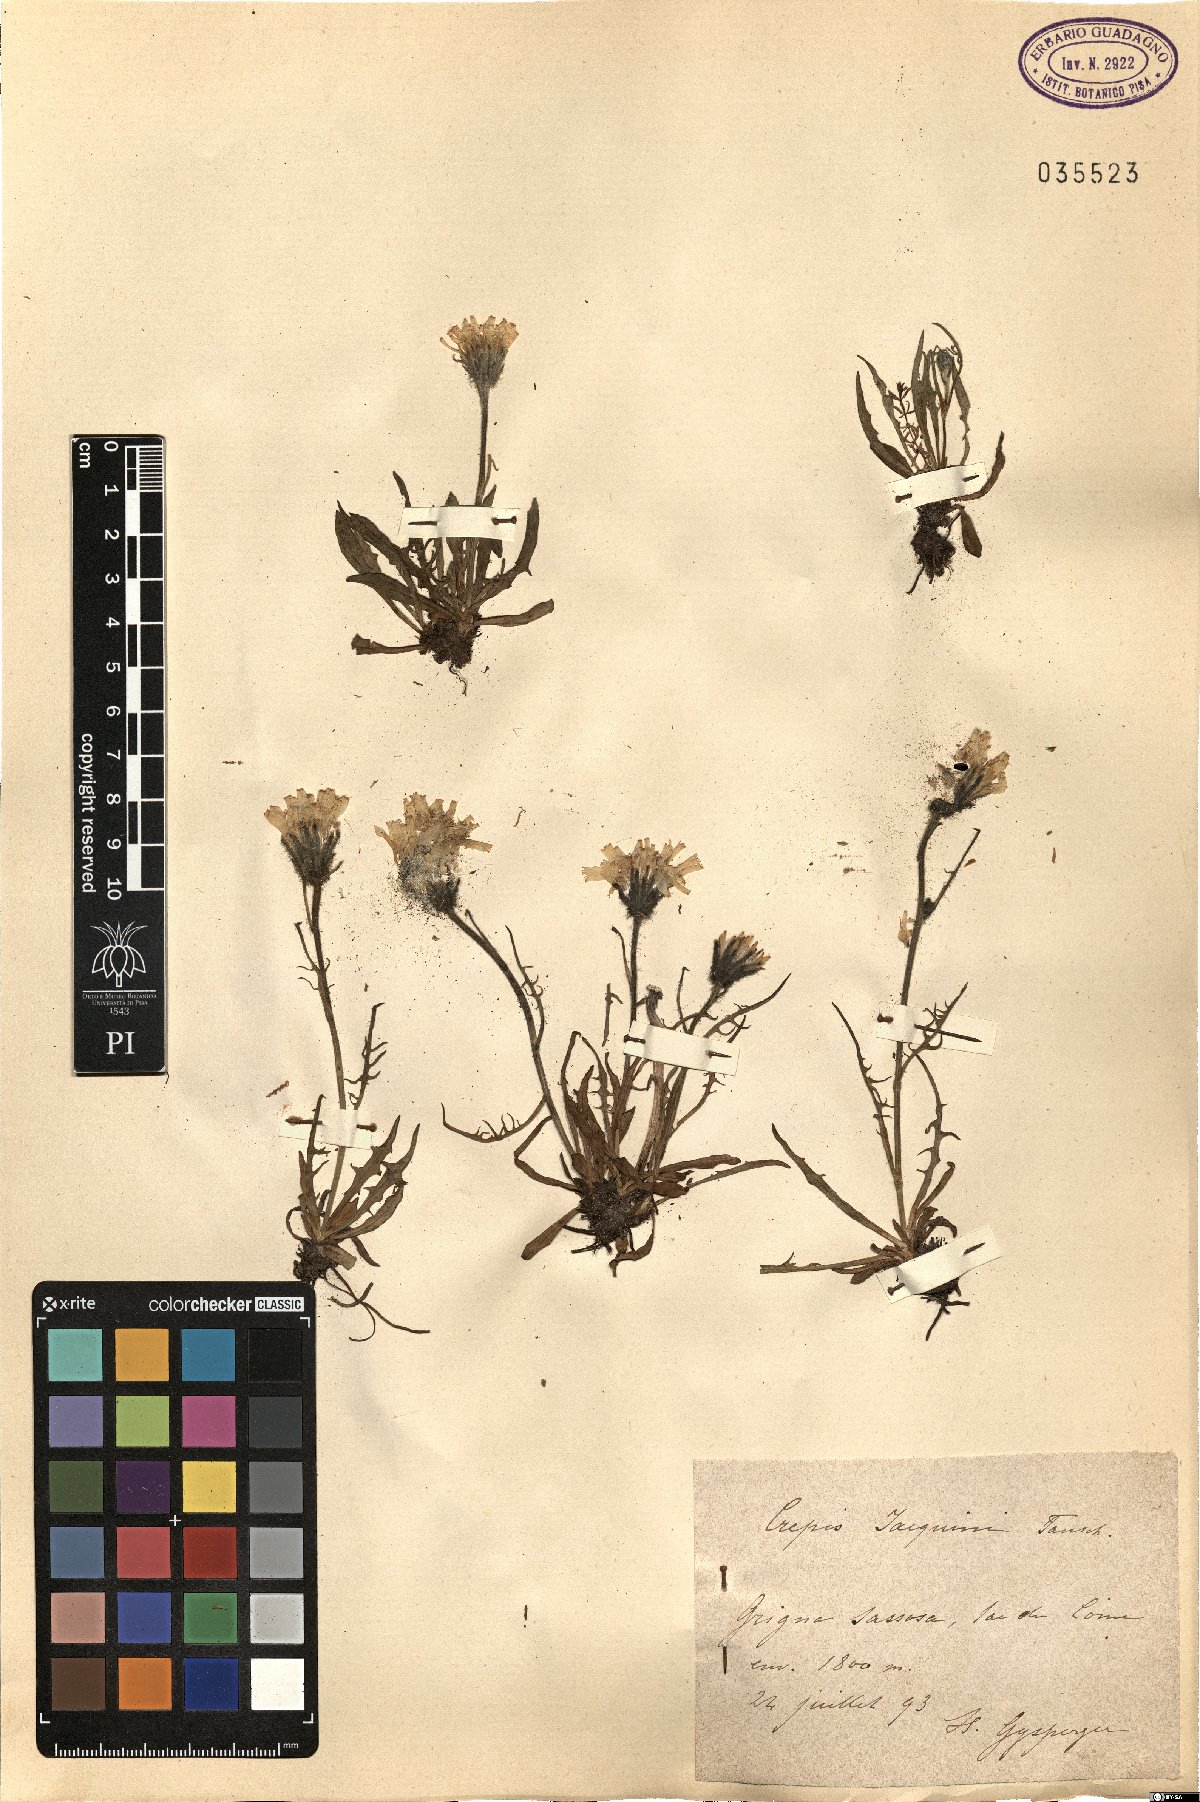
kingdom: Plantae
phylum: Tracheophyta
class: Magnoliopsida
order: Asterales
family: Asteraceae
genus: Crepis
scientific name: Crepis jacquinii
